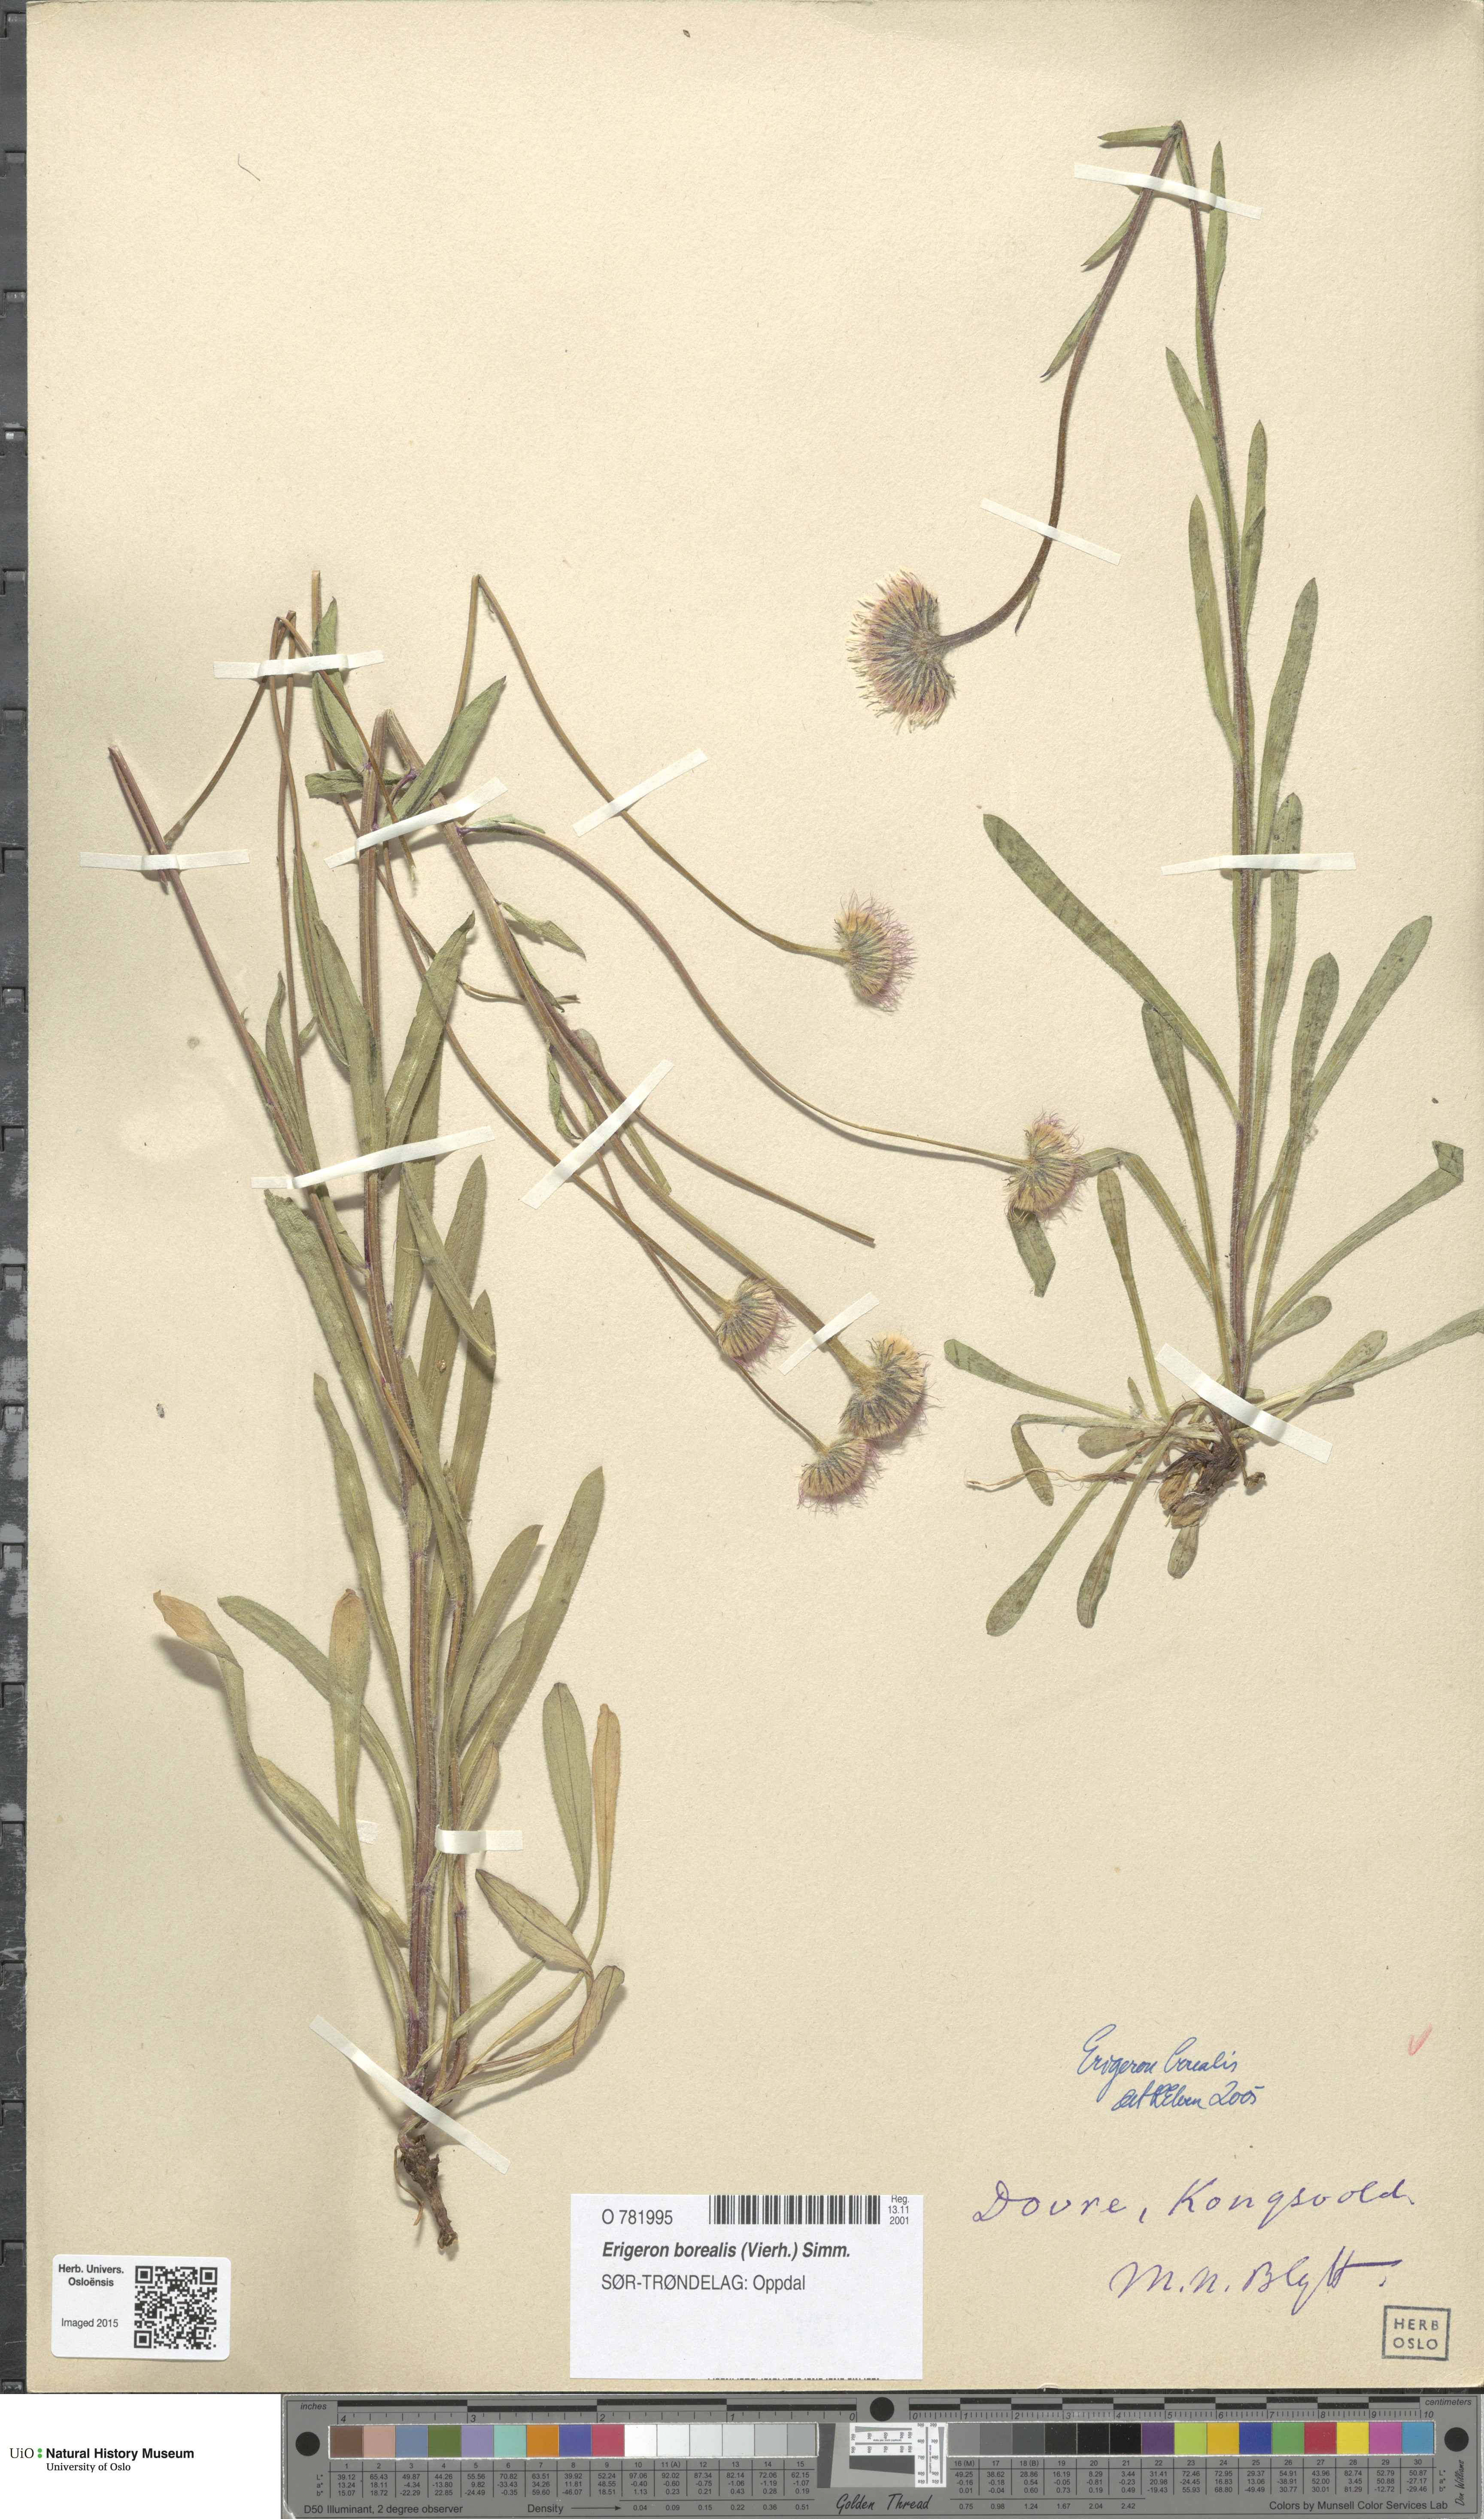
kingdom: Plantae
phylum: Tracheophyta
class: Magnoliopsida
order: Asterales
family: Asteraceae
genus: Erigeron
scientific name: Erigeron borealis
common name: Alpine fleabane
